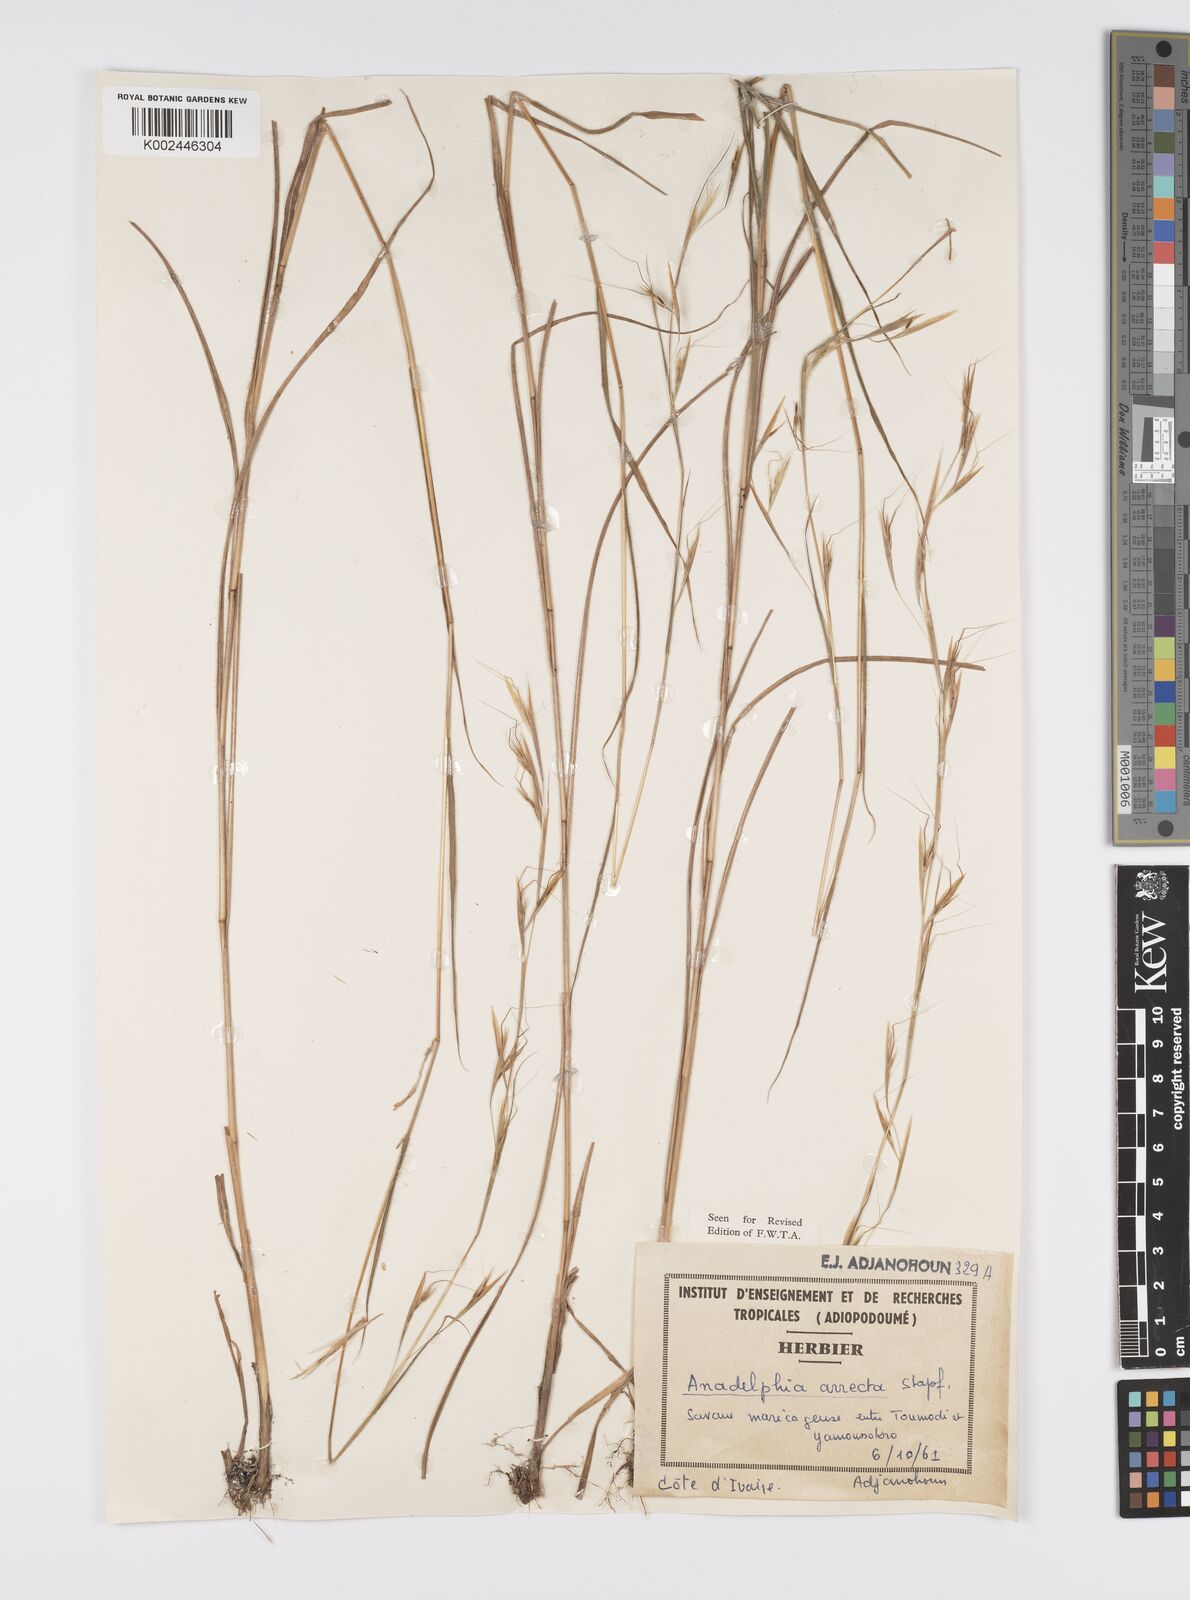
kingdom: Plantae
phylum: Tracheophyta
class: Liliopsida
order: Poales
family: Poaceae
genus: Anadelphia
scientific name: Anadelphia afzeliana
